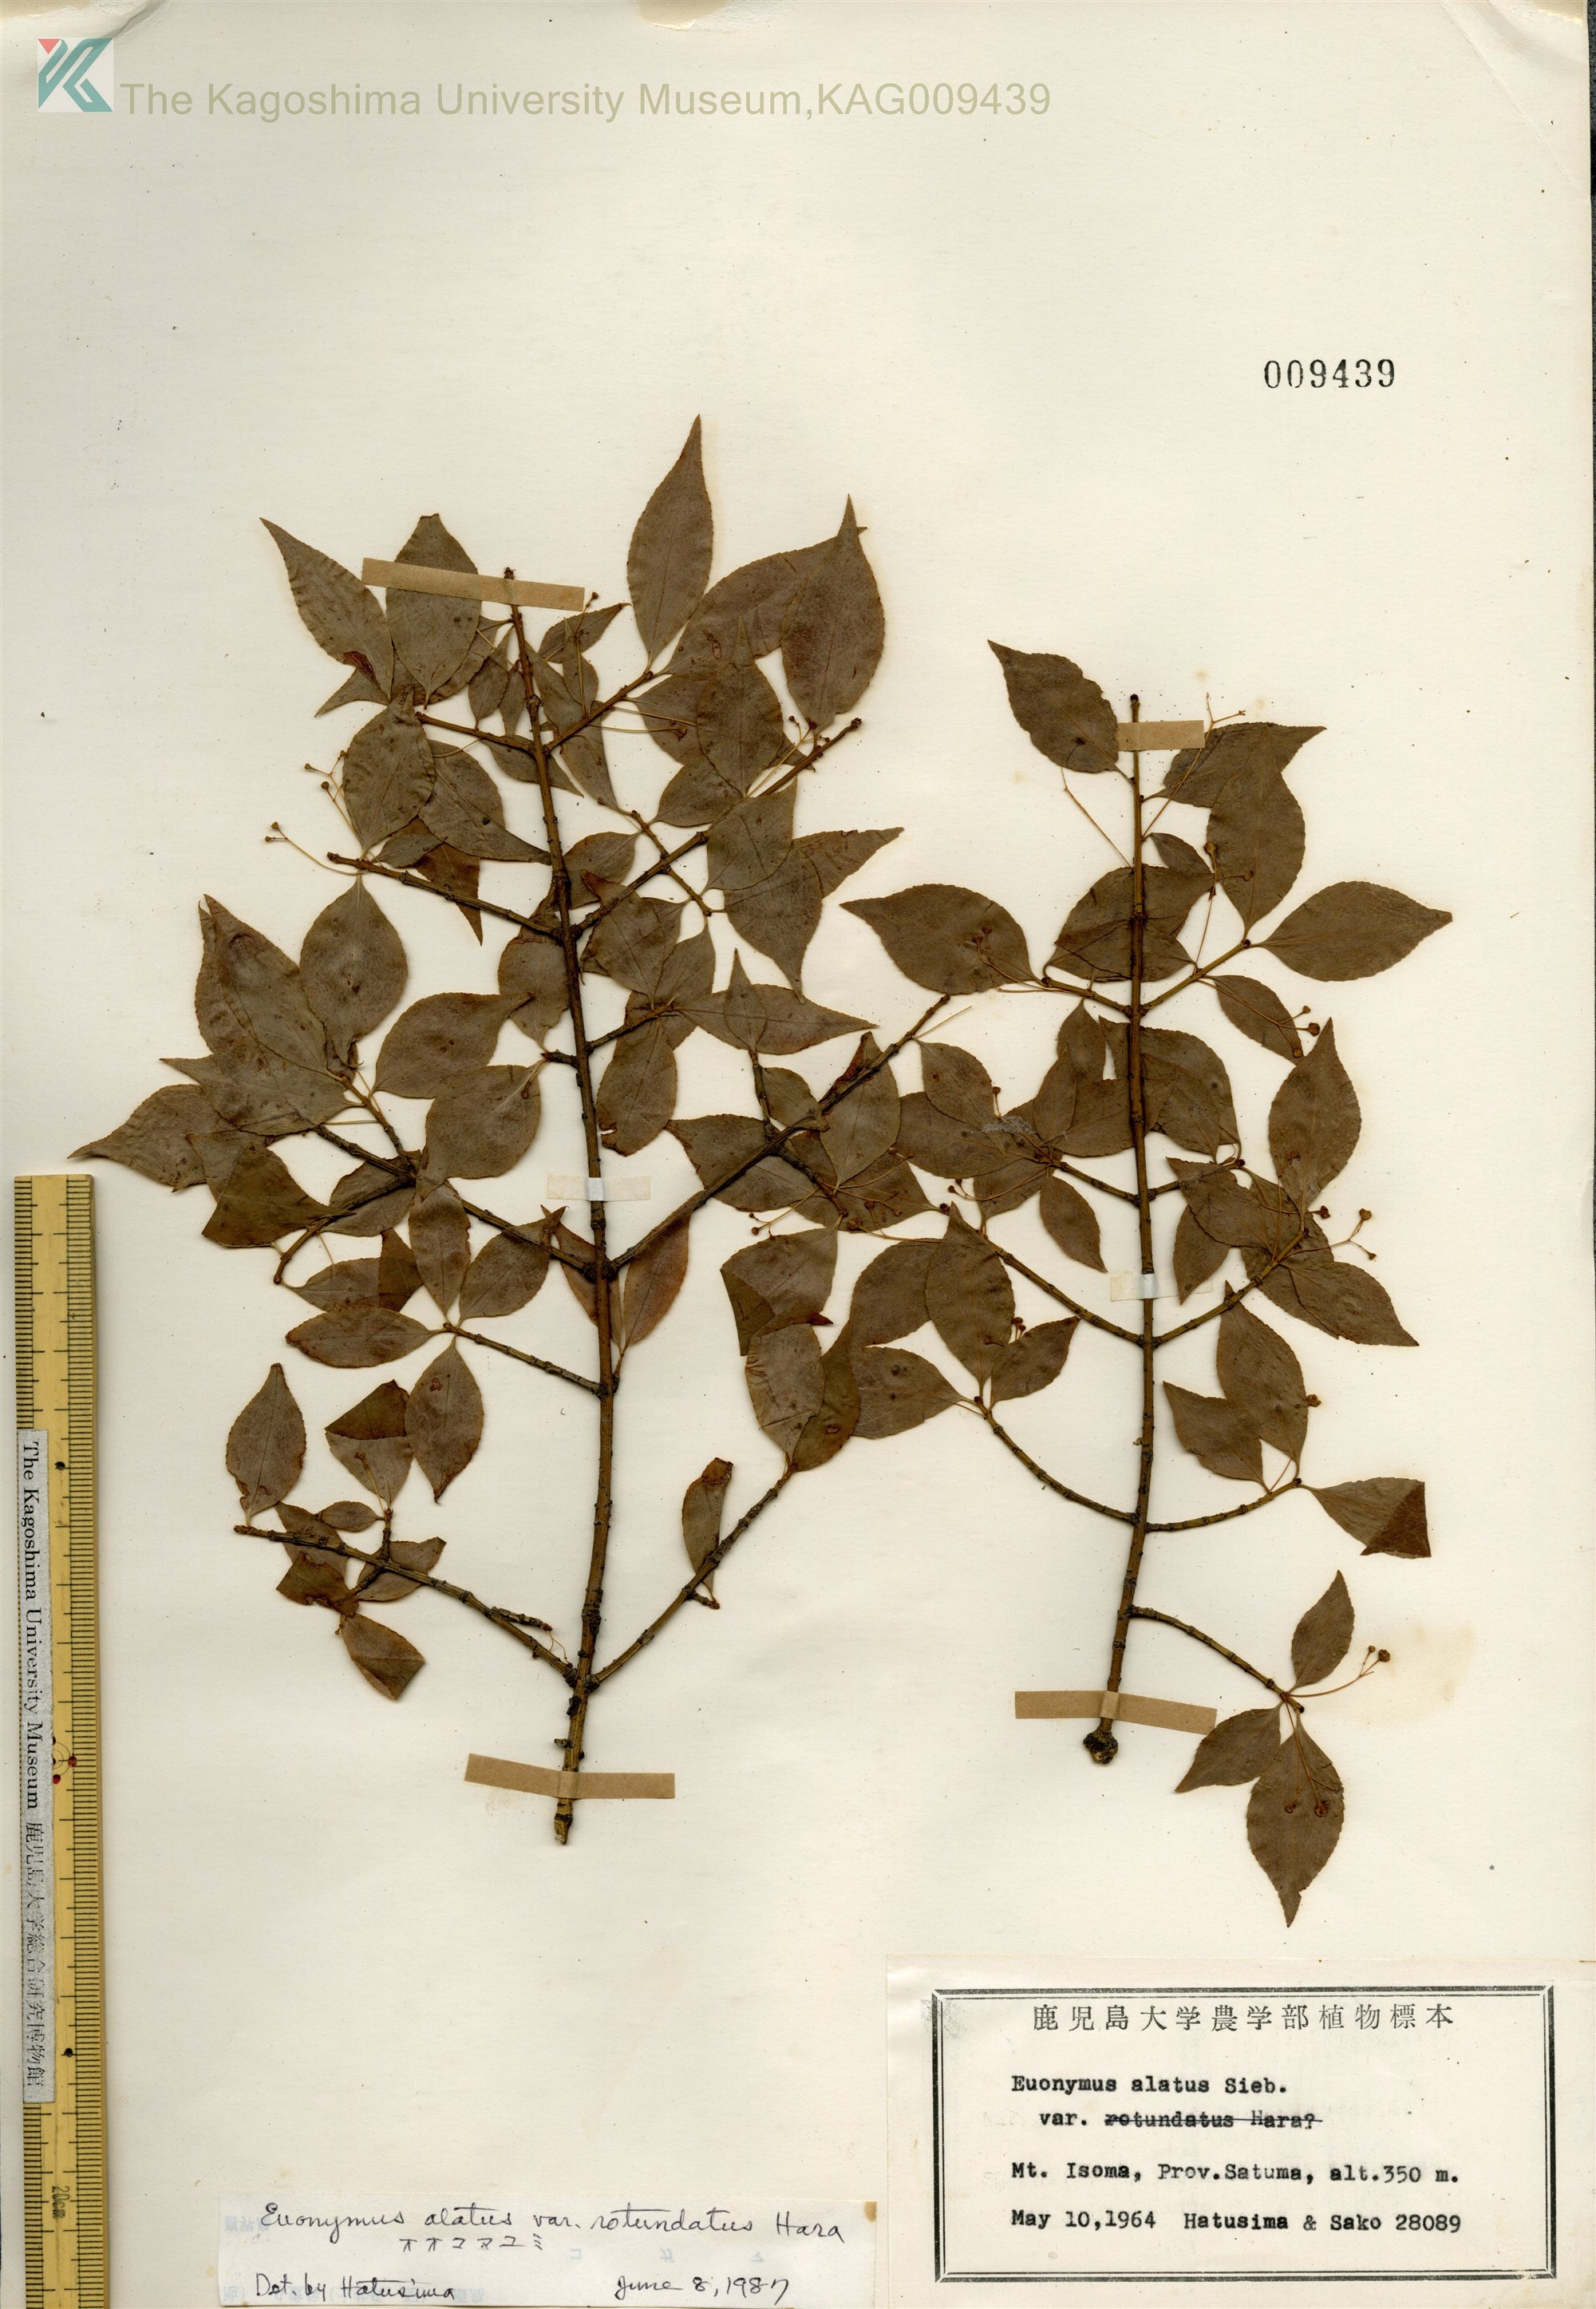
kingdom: Plantae
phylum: Tracheophyta
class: Magnoliopsida
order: Celastrales
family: Celastraceae
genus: Euonymus
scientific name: Euonymus alatus
